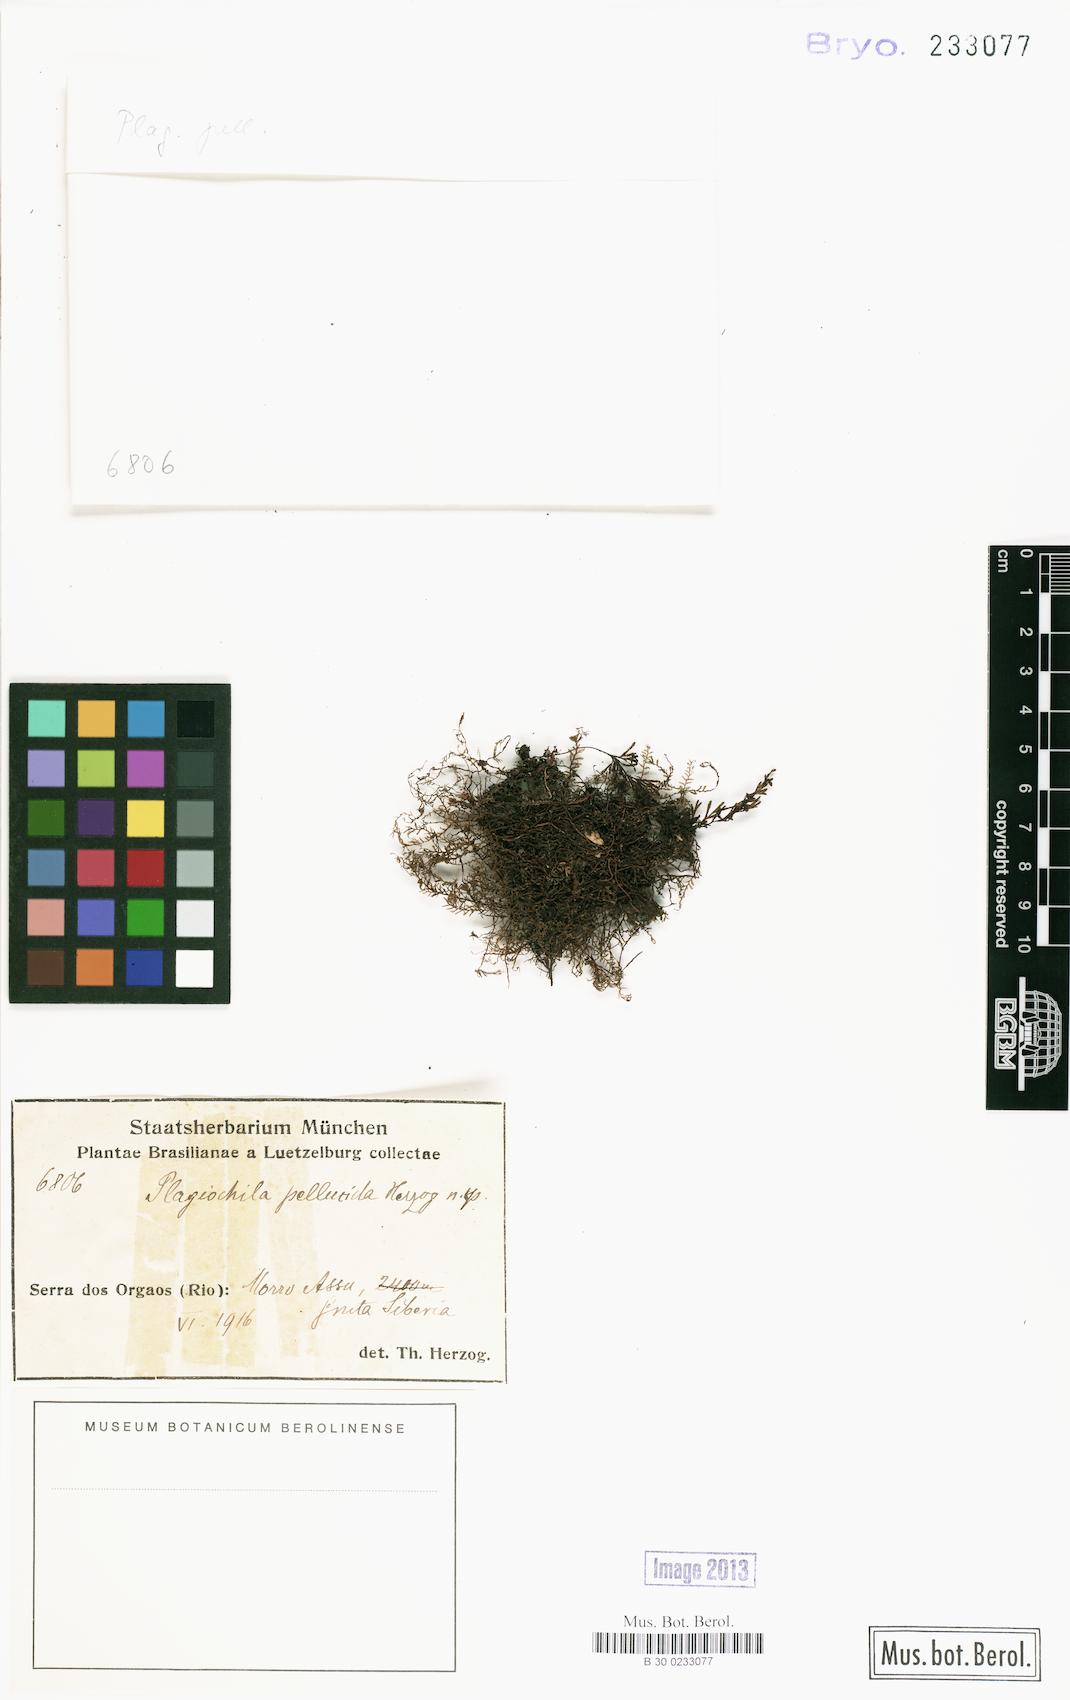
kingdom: Plantae
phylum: Marchantiophyta
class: Jungermanniopsida
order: Jungermanniales
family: Plagiochilaceae
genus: Plagiochila
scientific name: Plagiochila pellucida
